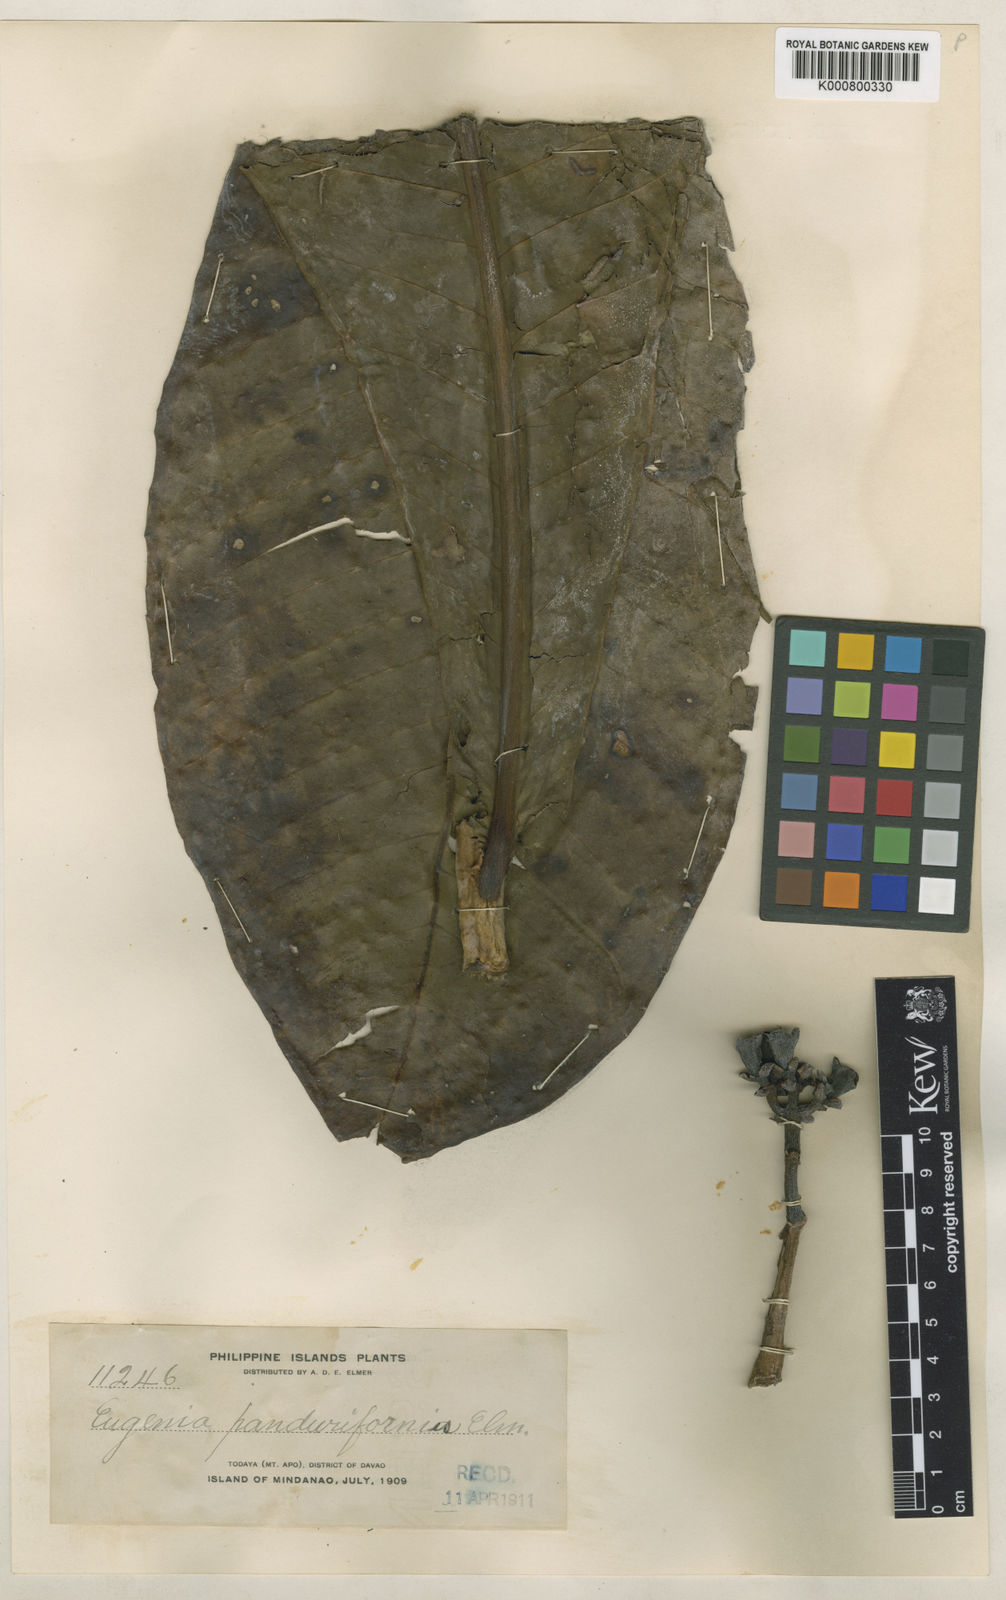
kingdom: Plantae
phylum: Tracheophyta
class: Magnoliopsida
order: Myrtales
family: Myrtaceae
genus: Syzygium
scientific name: Syzygium panduriforme
